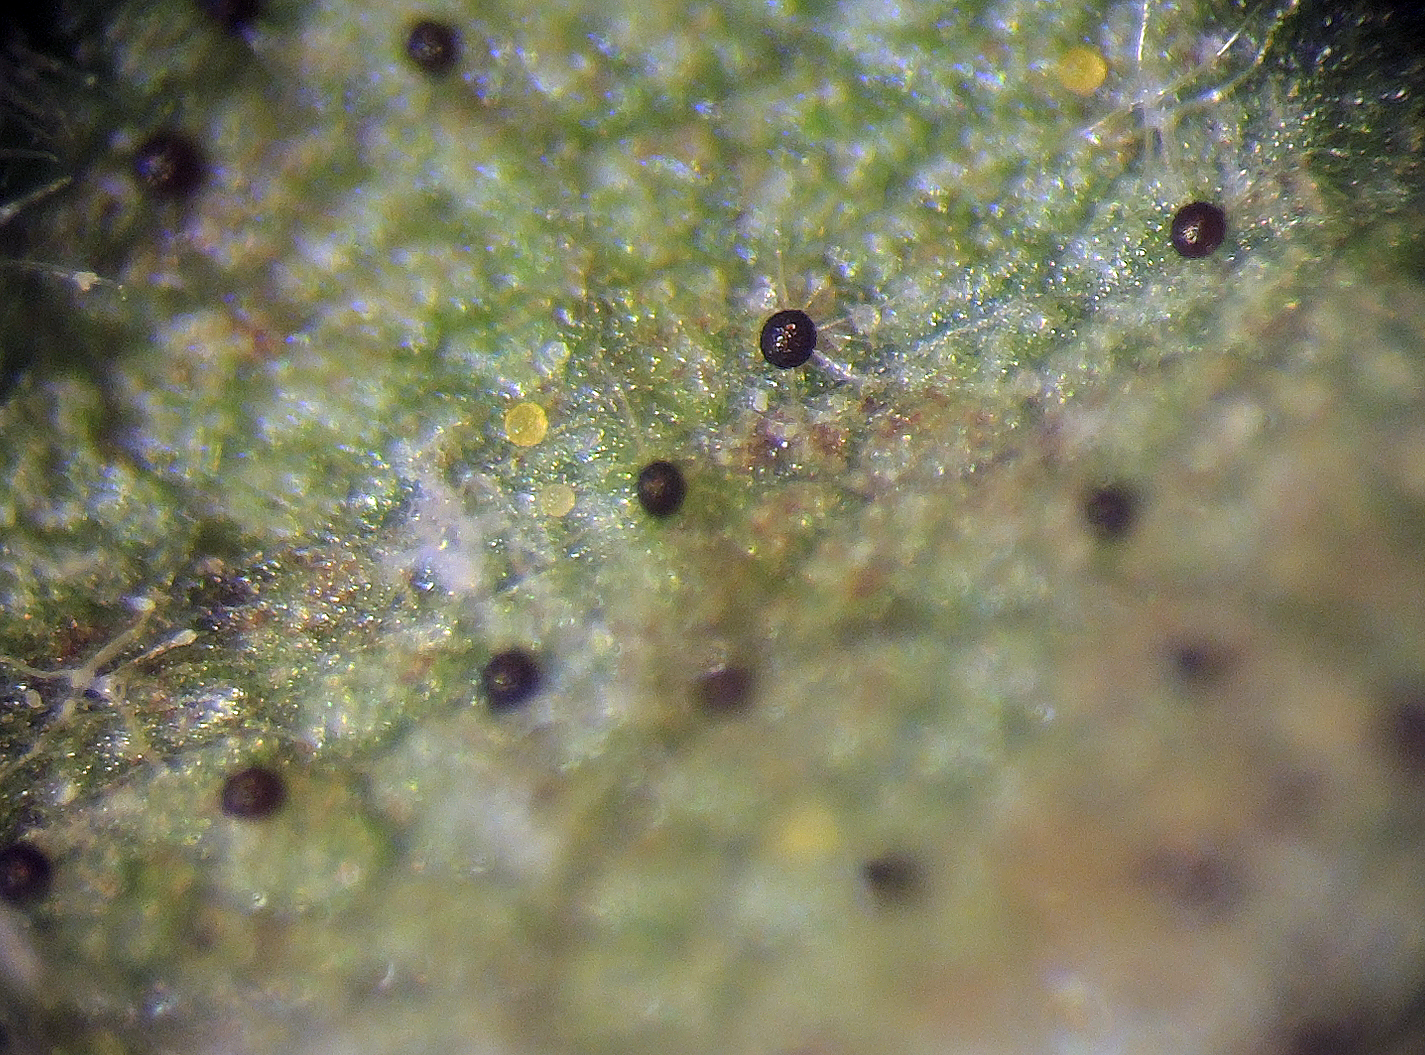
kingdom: Fungi
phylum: Ascomycota
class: Leotiomycetes
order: Helotiales
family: Erysiphaceae
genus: Erysiphe
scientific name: Erysiphe platani
